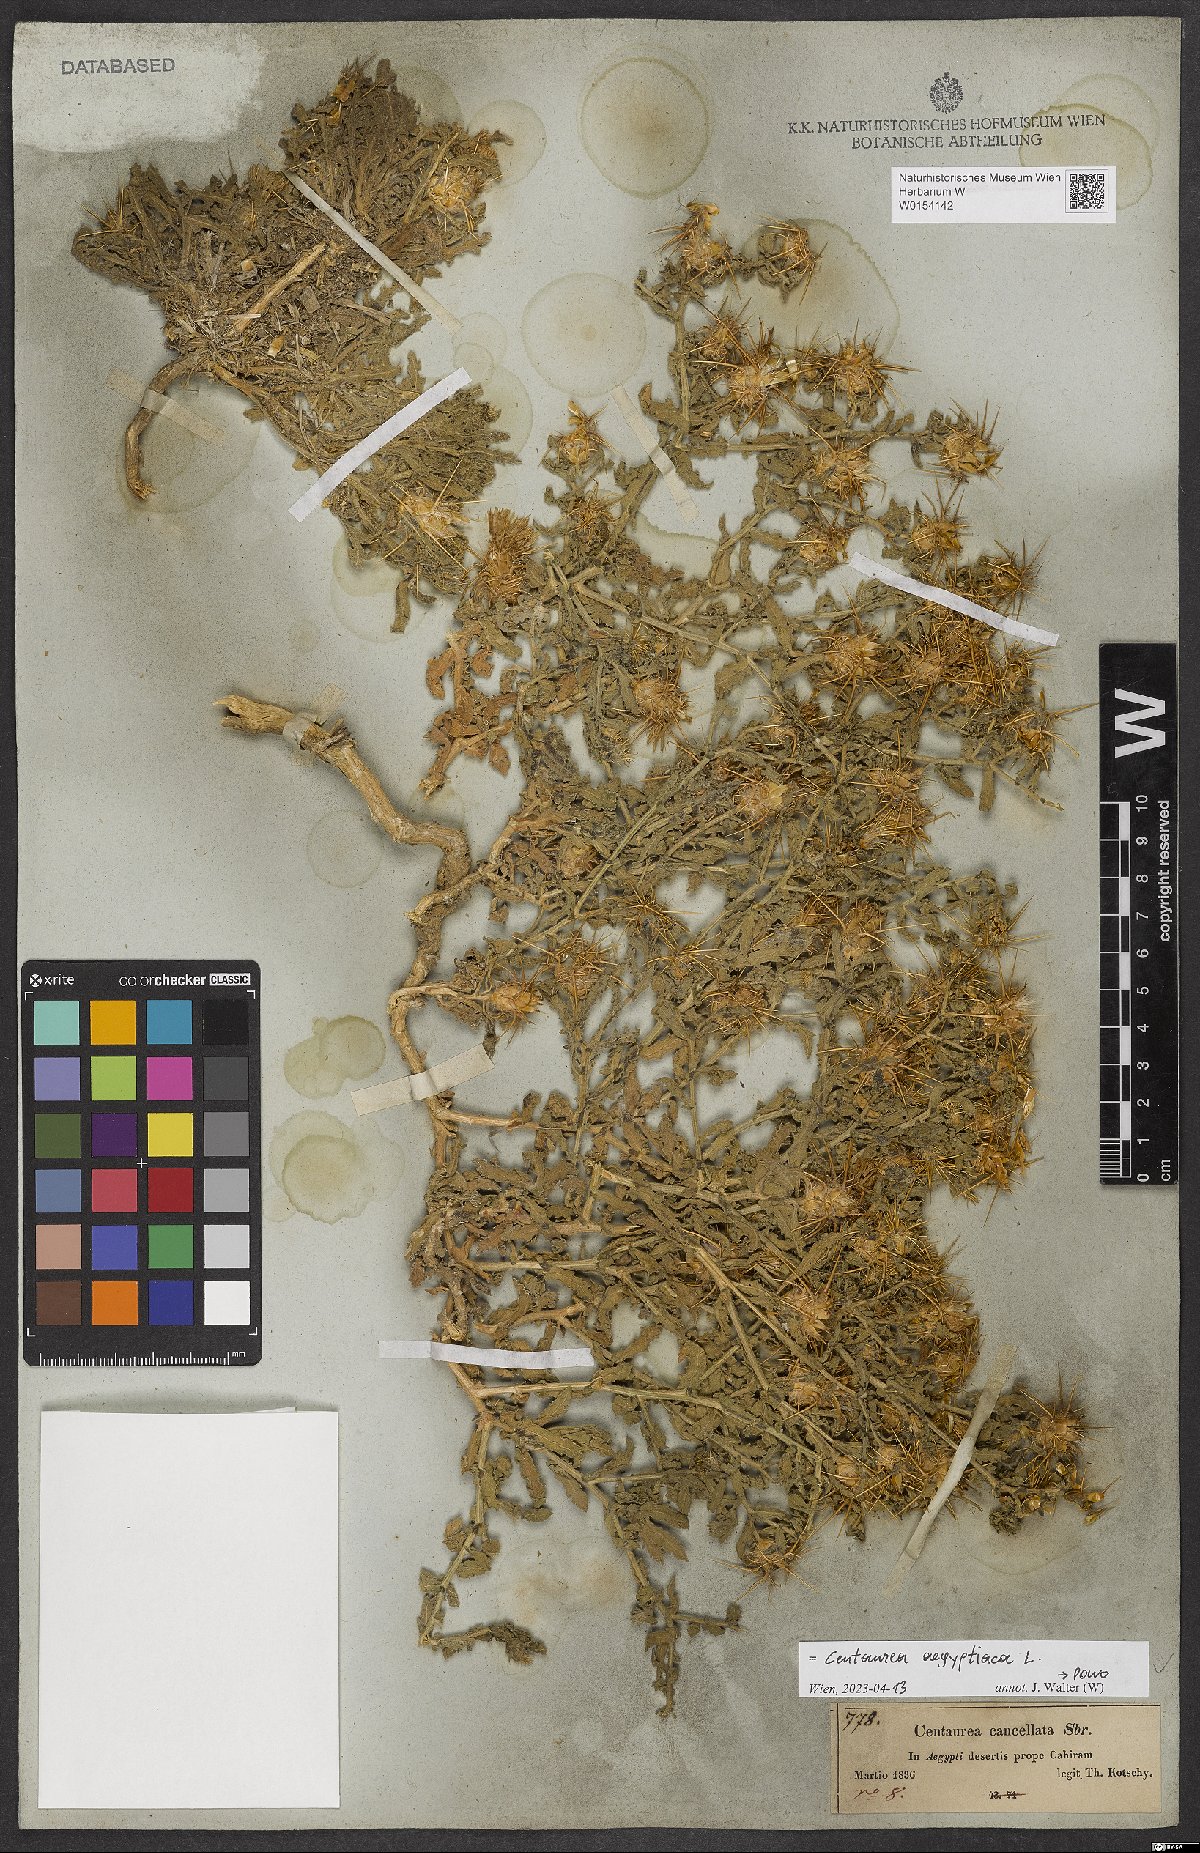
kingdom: Plantae
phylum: Tracheophyta
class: Magnoliopsida
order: Asterales
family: Asteraceae
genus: Centaurea
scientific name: Centaurea aegyptiaca
